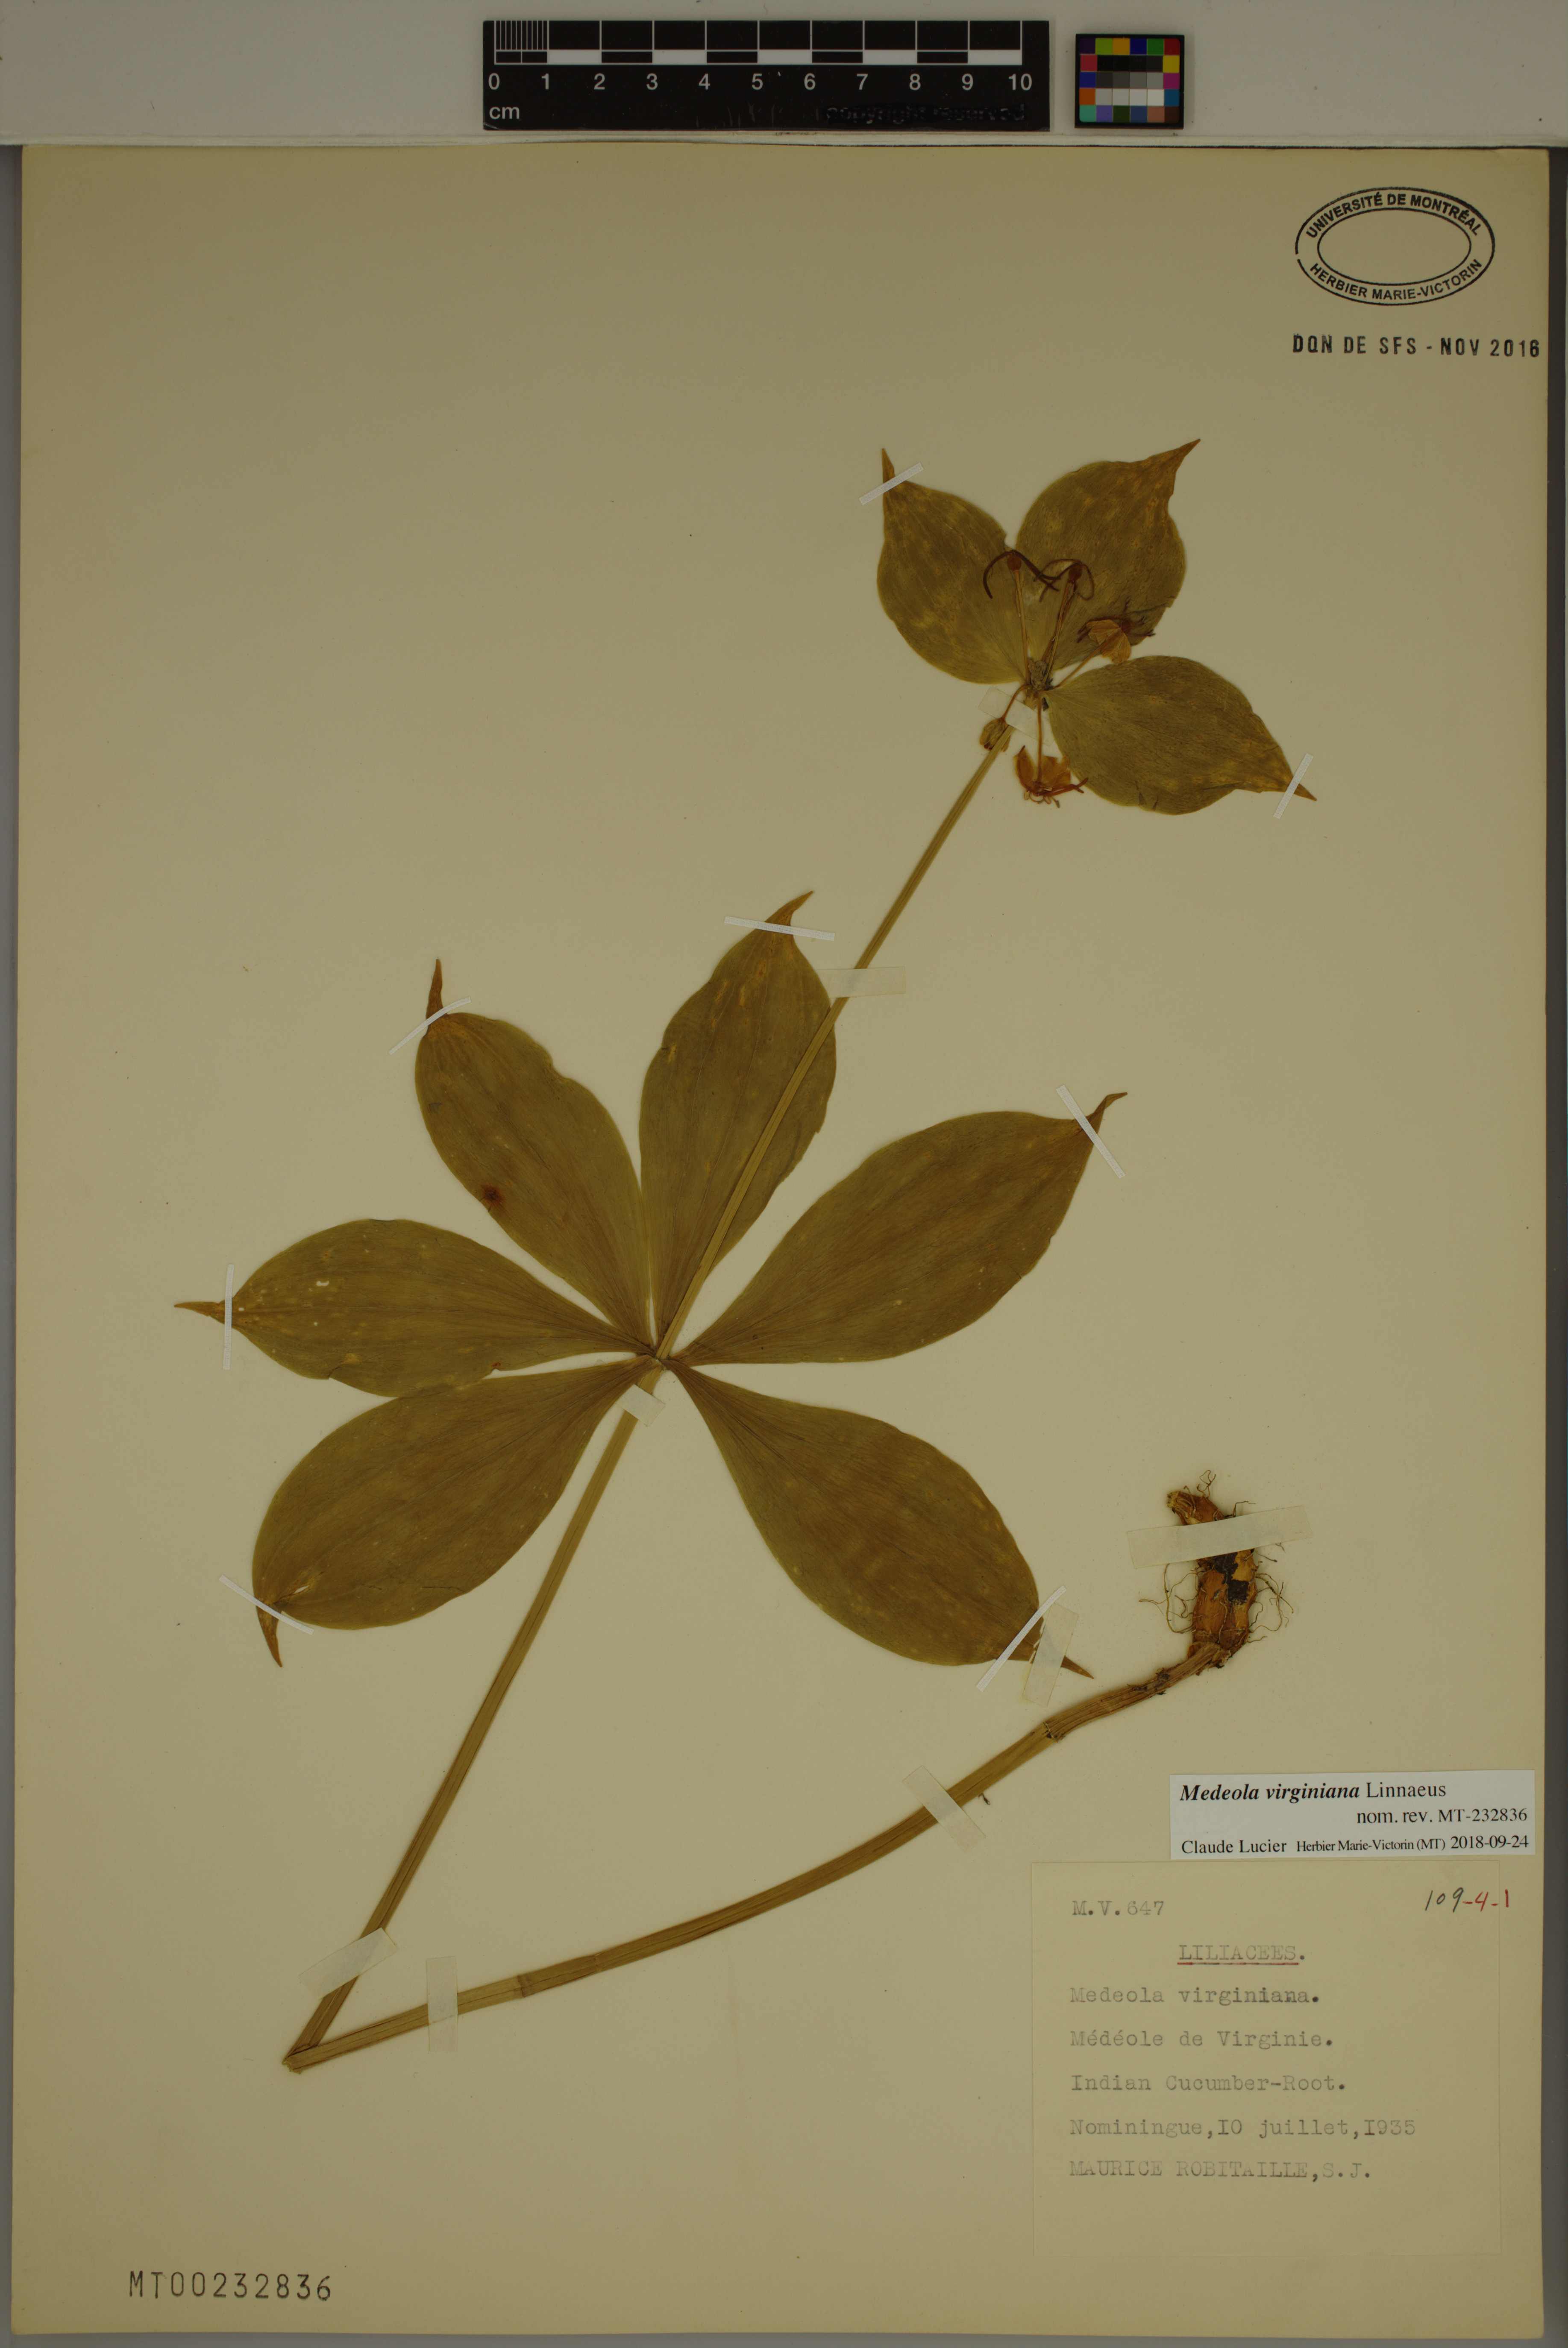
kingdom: Plantae
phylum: Tracheophyta
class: Liliopsida
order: Liliales
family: Liliaceae
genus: Medeola
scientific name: Medeola virginiana
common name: Indian cucumber-root
